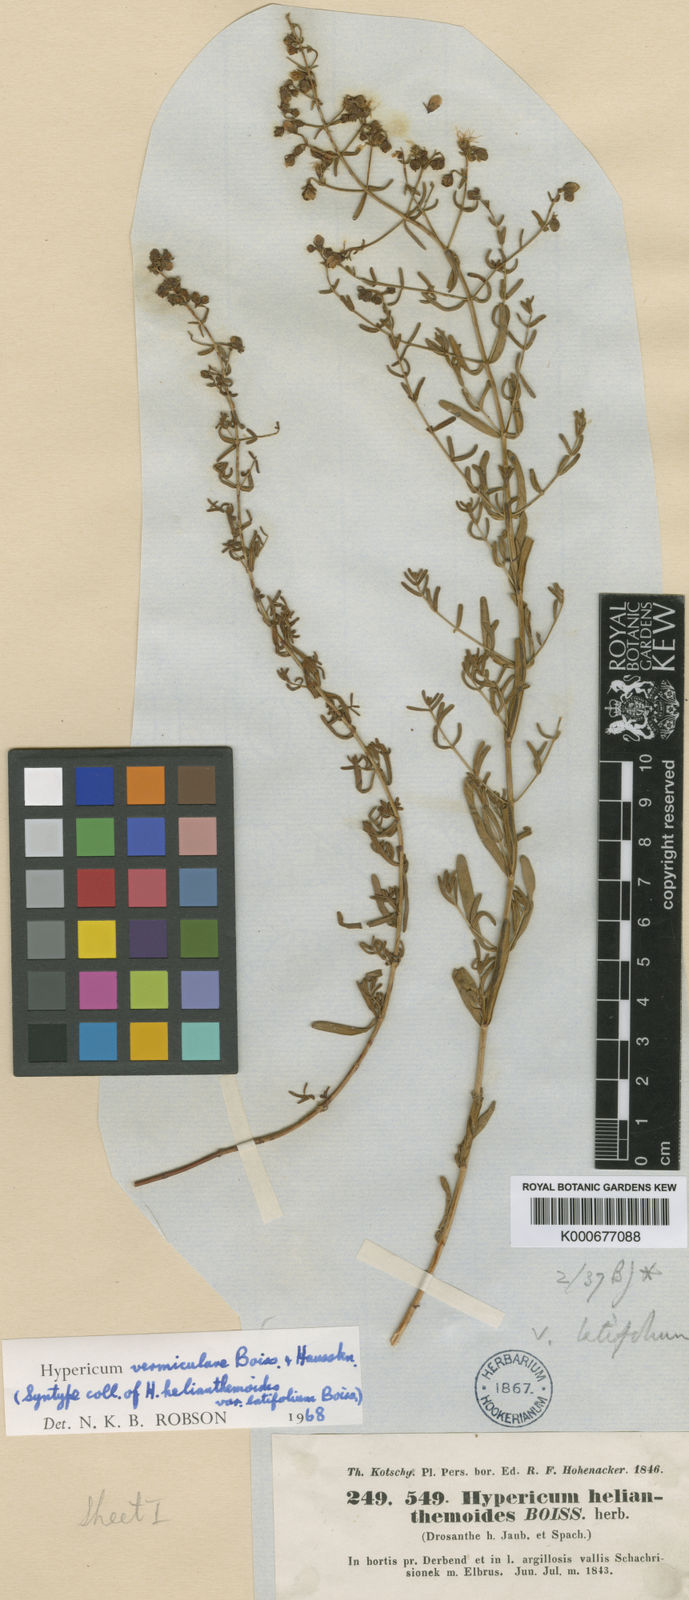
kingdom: Plantae
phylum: Tracheophyta
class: Magnoliopsida
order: Malpighiales
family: Hypericaceae
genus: Hypericum
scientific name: Hypericum vermiculare
